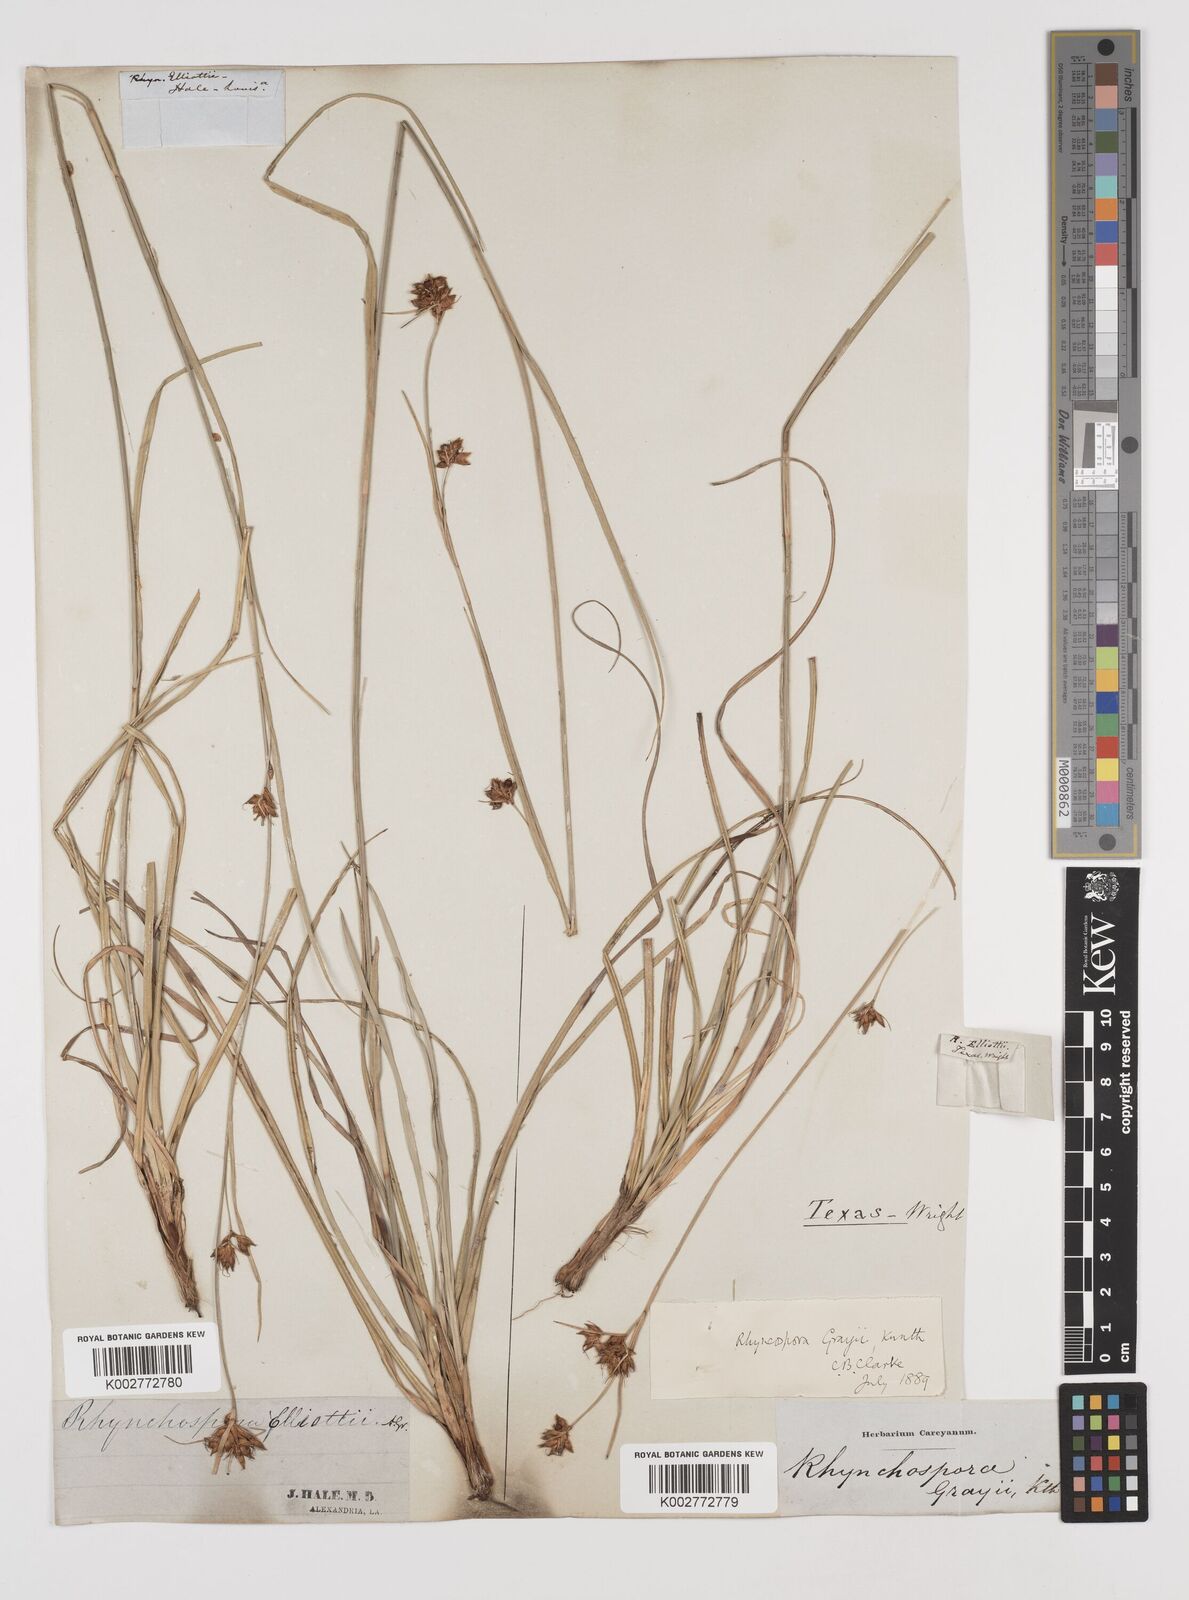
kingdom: Plantae
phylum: Tracheophyta
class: Liliopsida
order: Poales
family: Cyperaceae
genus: Rhynchospora
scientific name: Rhynchospora grayi
